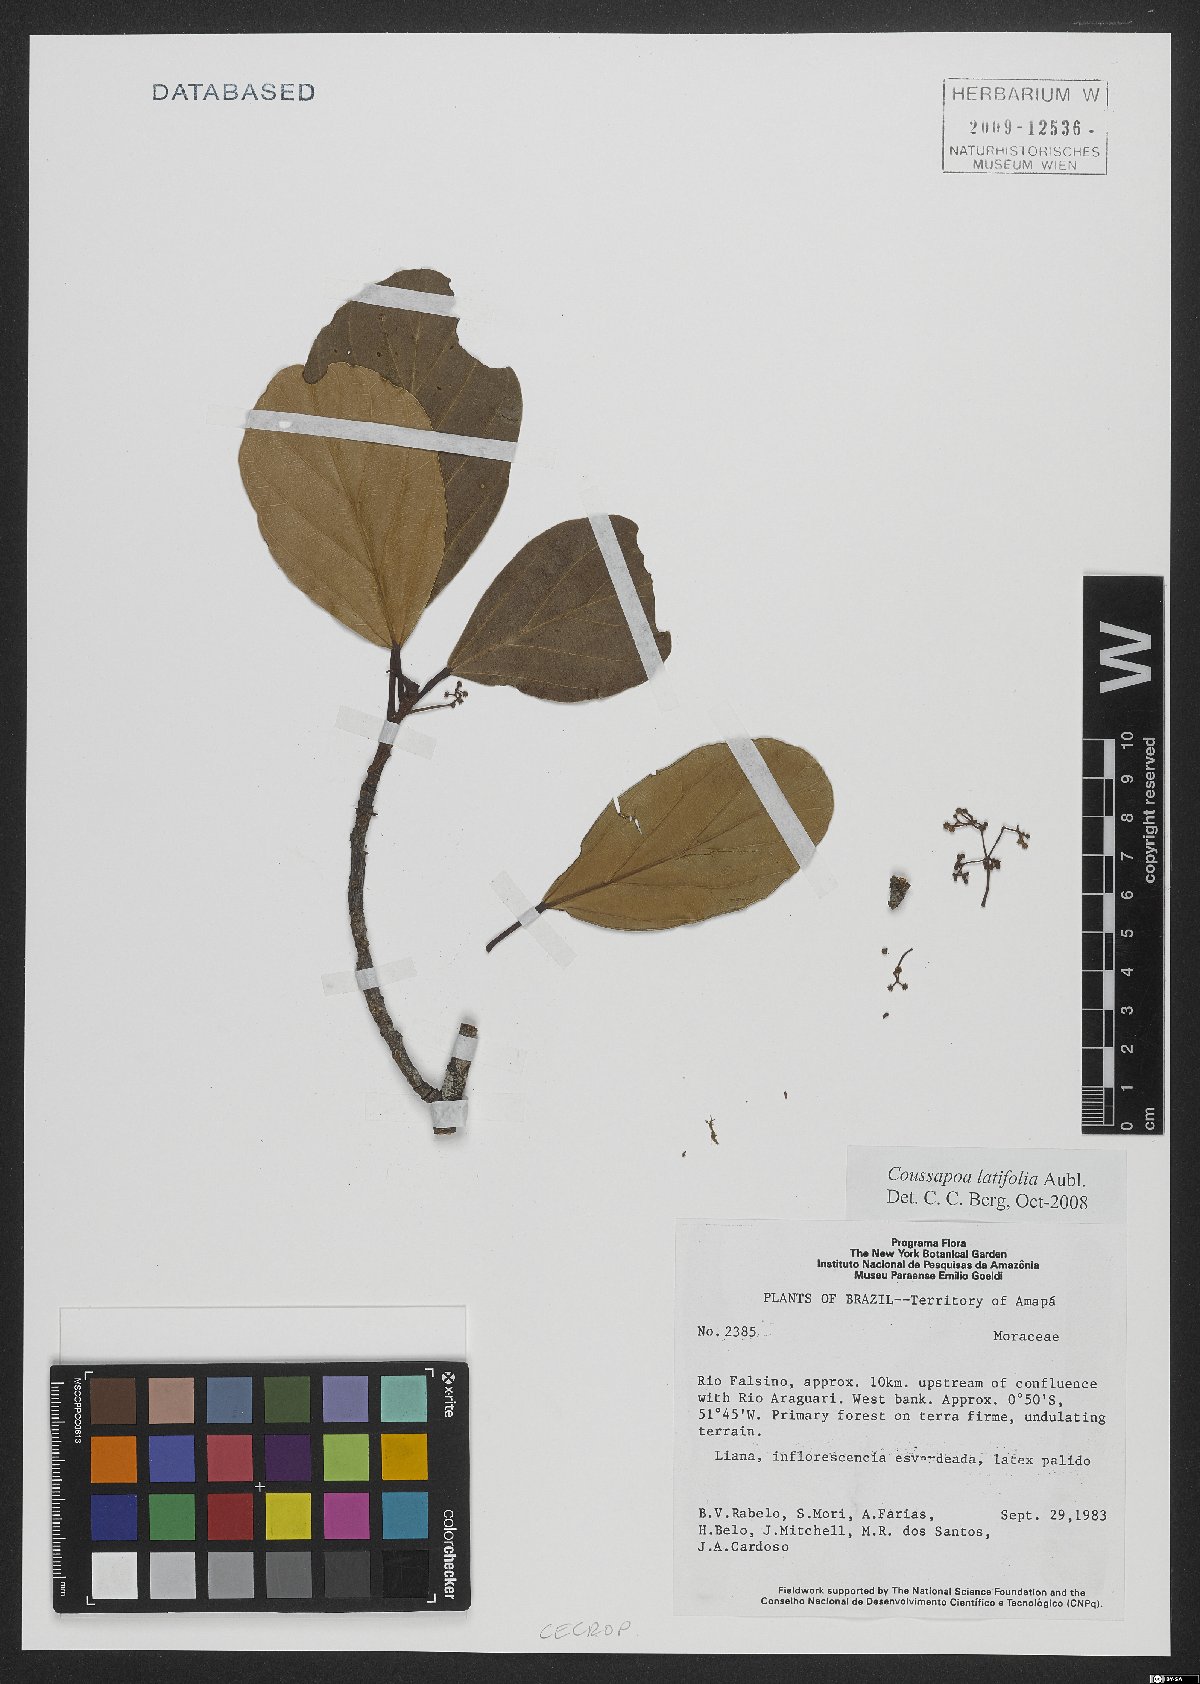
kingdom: Plantae
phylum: Tracheophyta
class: Magnoliopsida
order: Rosales
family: Urticaceae
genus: Coussapoa
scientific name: Coussapoa latifolia
